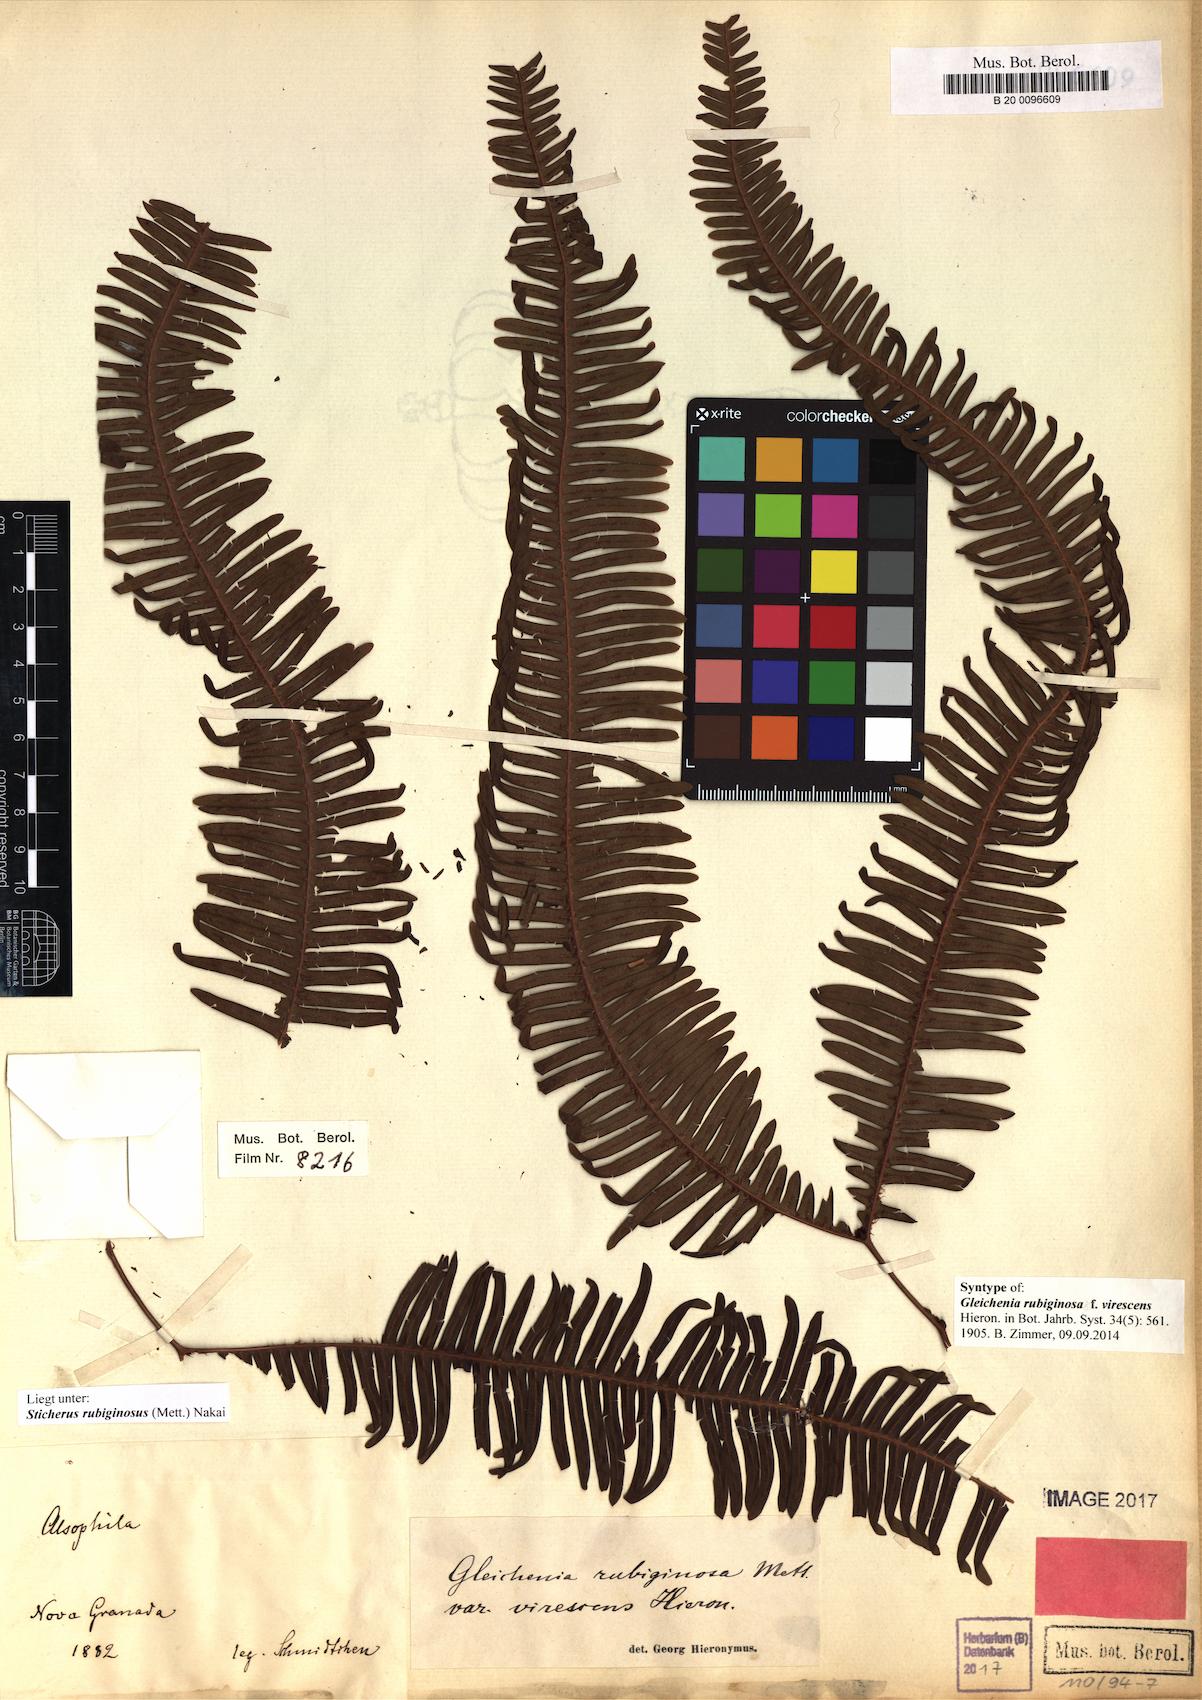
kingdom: Plantae
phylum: Tracheophyta
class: Polypodiopsida
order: Gleicheniales
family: Gleicheniaceae
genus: Sticherus
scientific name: Sticherus rubiginosus
